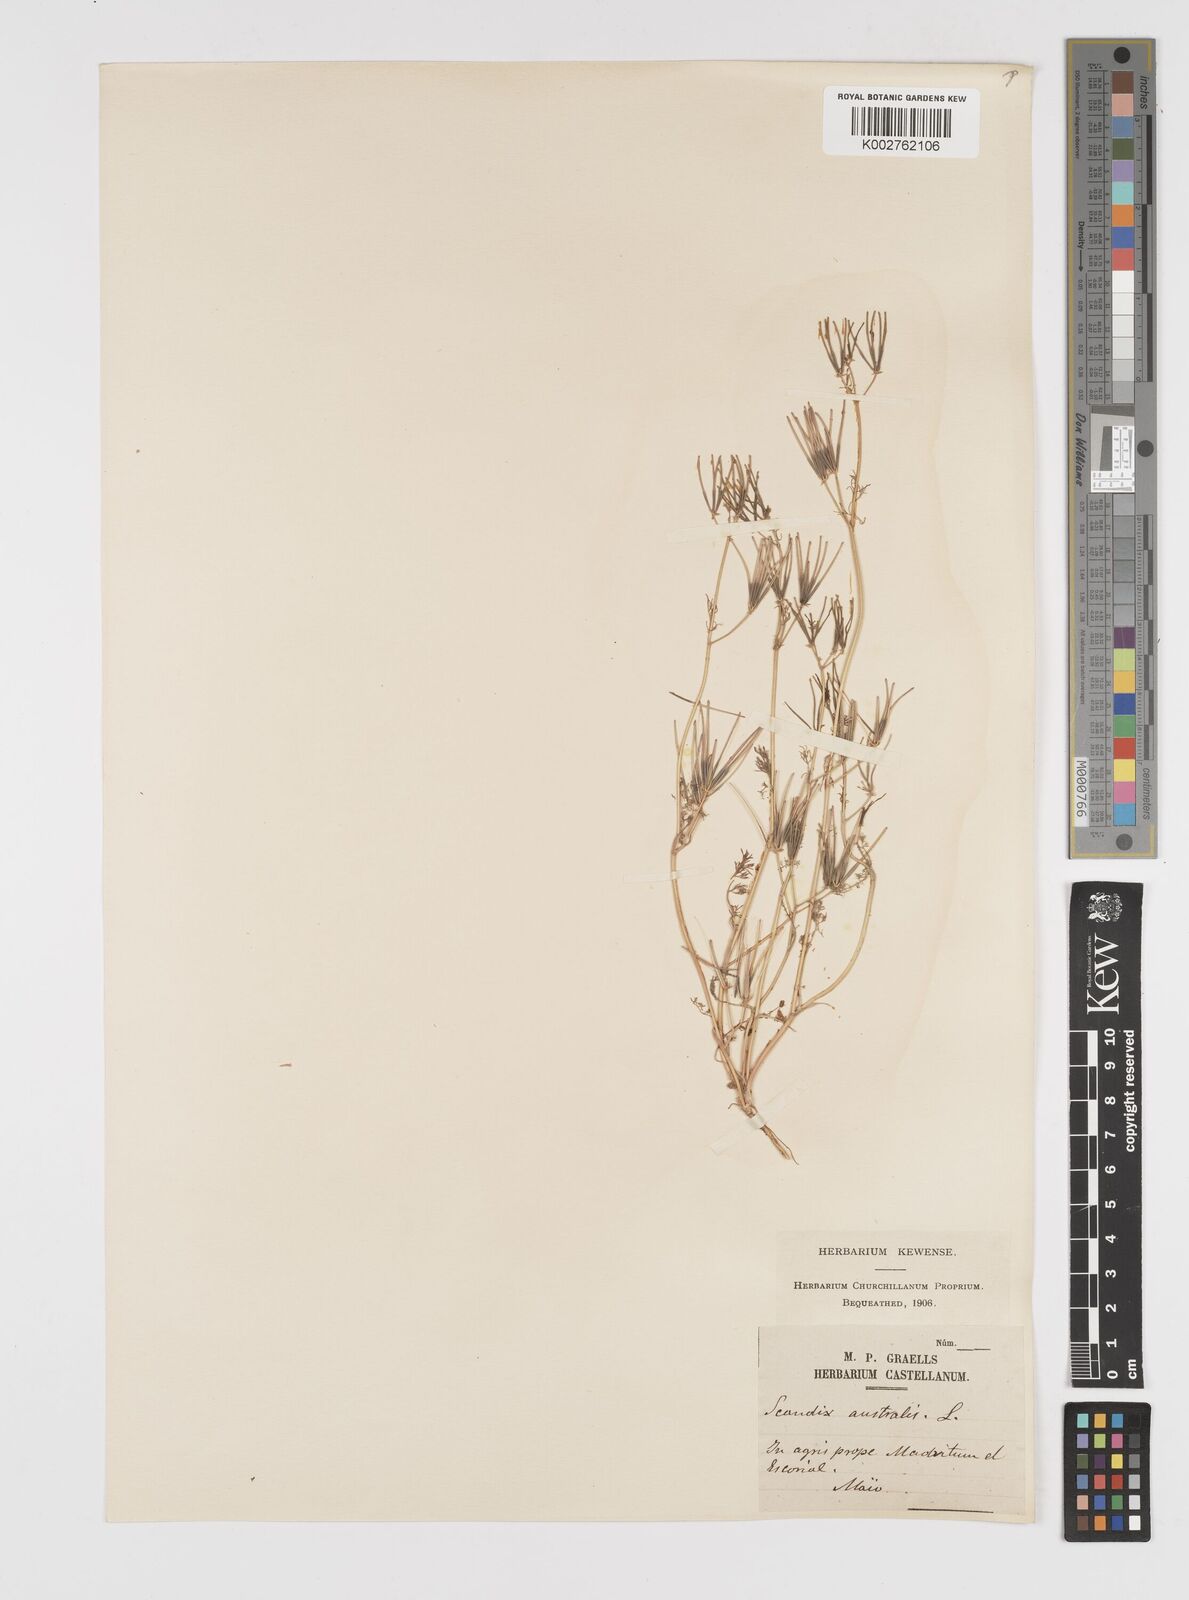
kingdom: Plantae
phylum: Tracheophyta
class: Magnoliopsida
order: Apiales
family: Apiaceae
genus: Scandix
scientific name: Scandix australis
